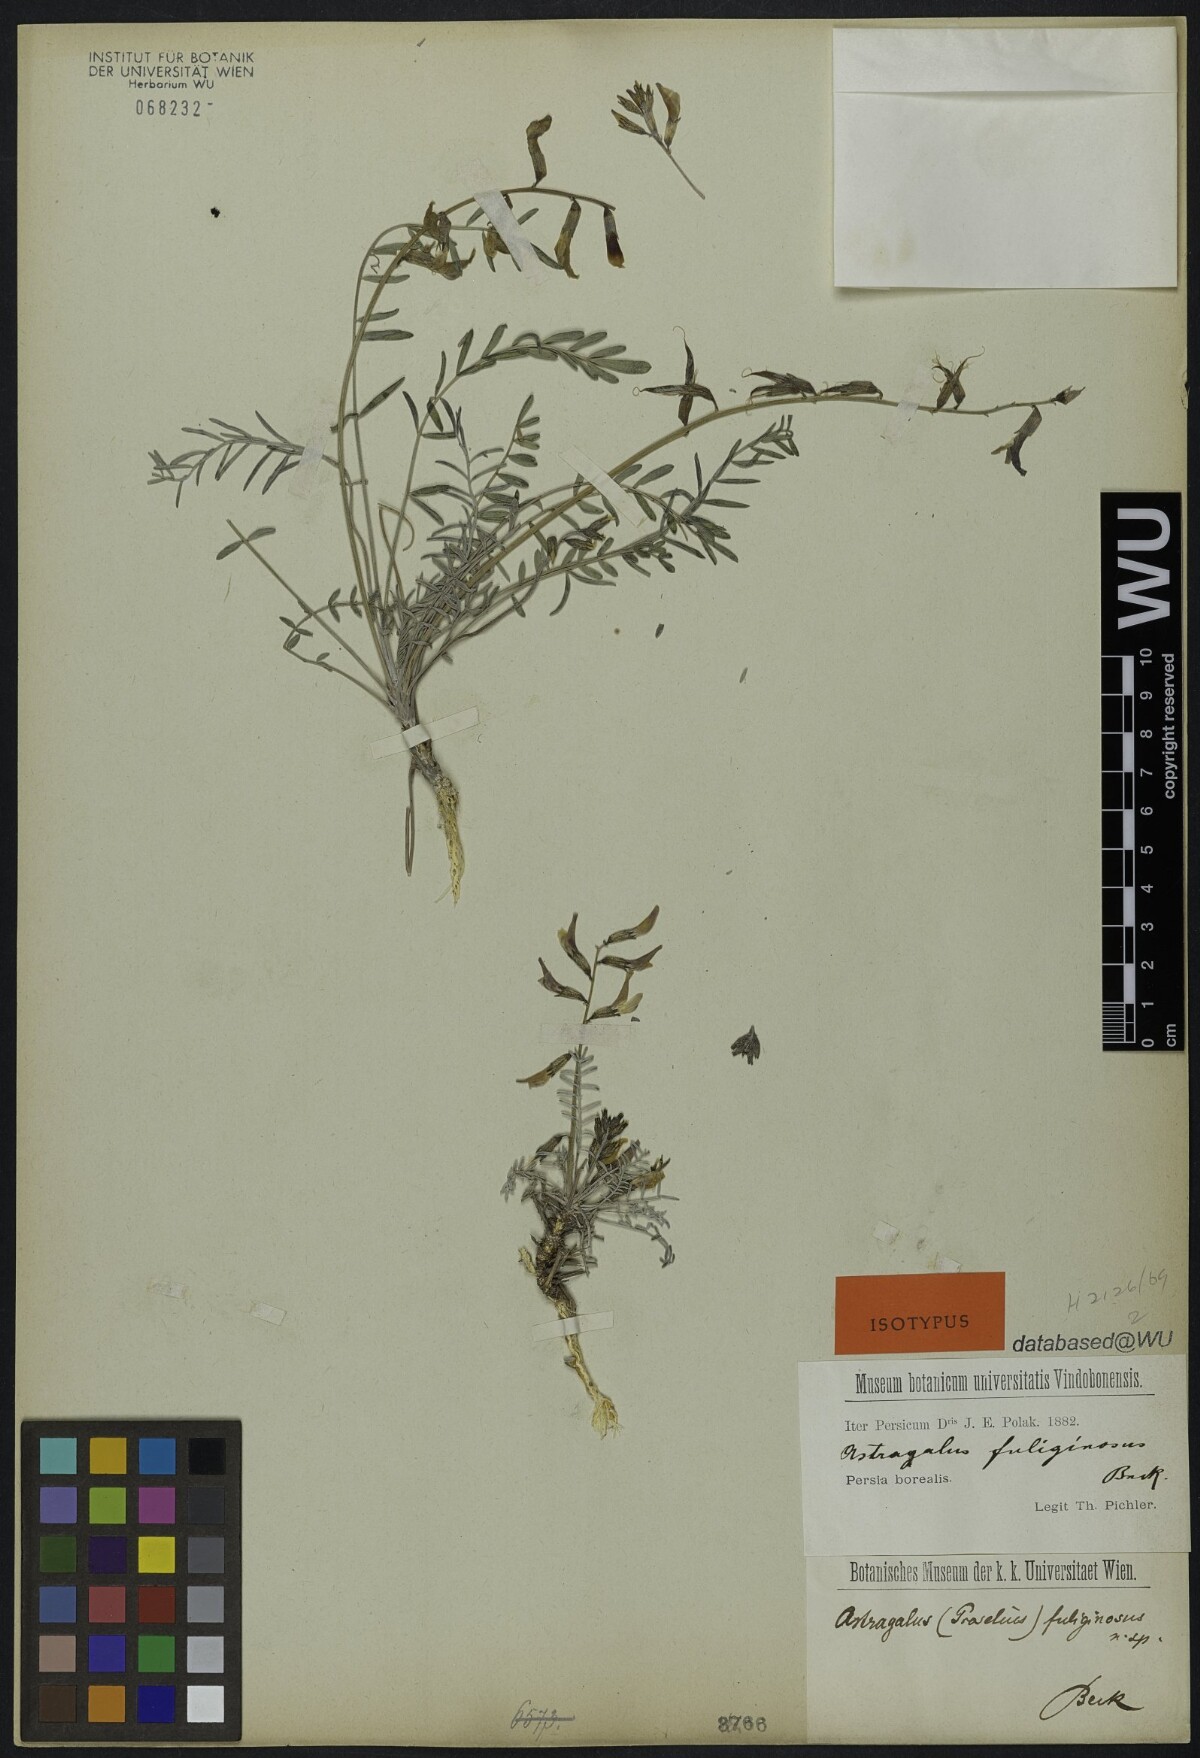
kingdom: Plantae
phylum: Tracheophyta
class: Magnoliopsida
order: Fabales
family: Fabaceae
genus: Astragalus
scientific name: Astragalus fuliginosus
